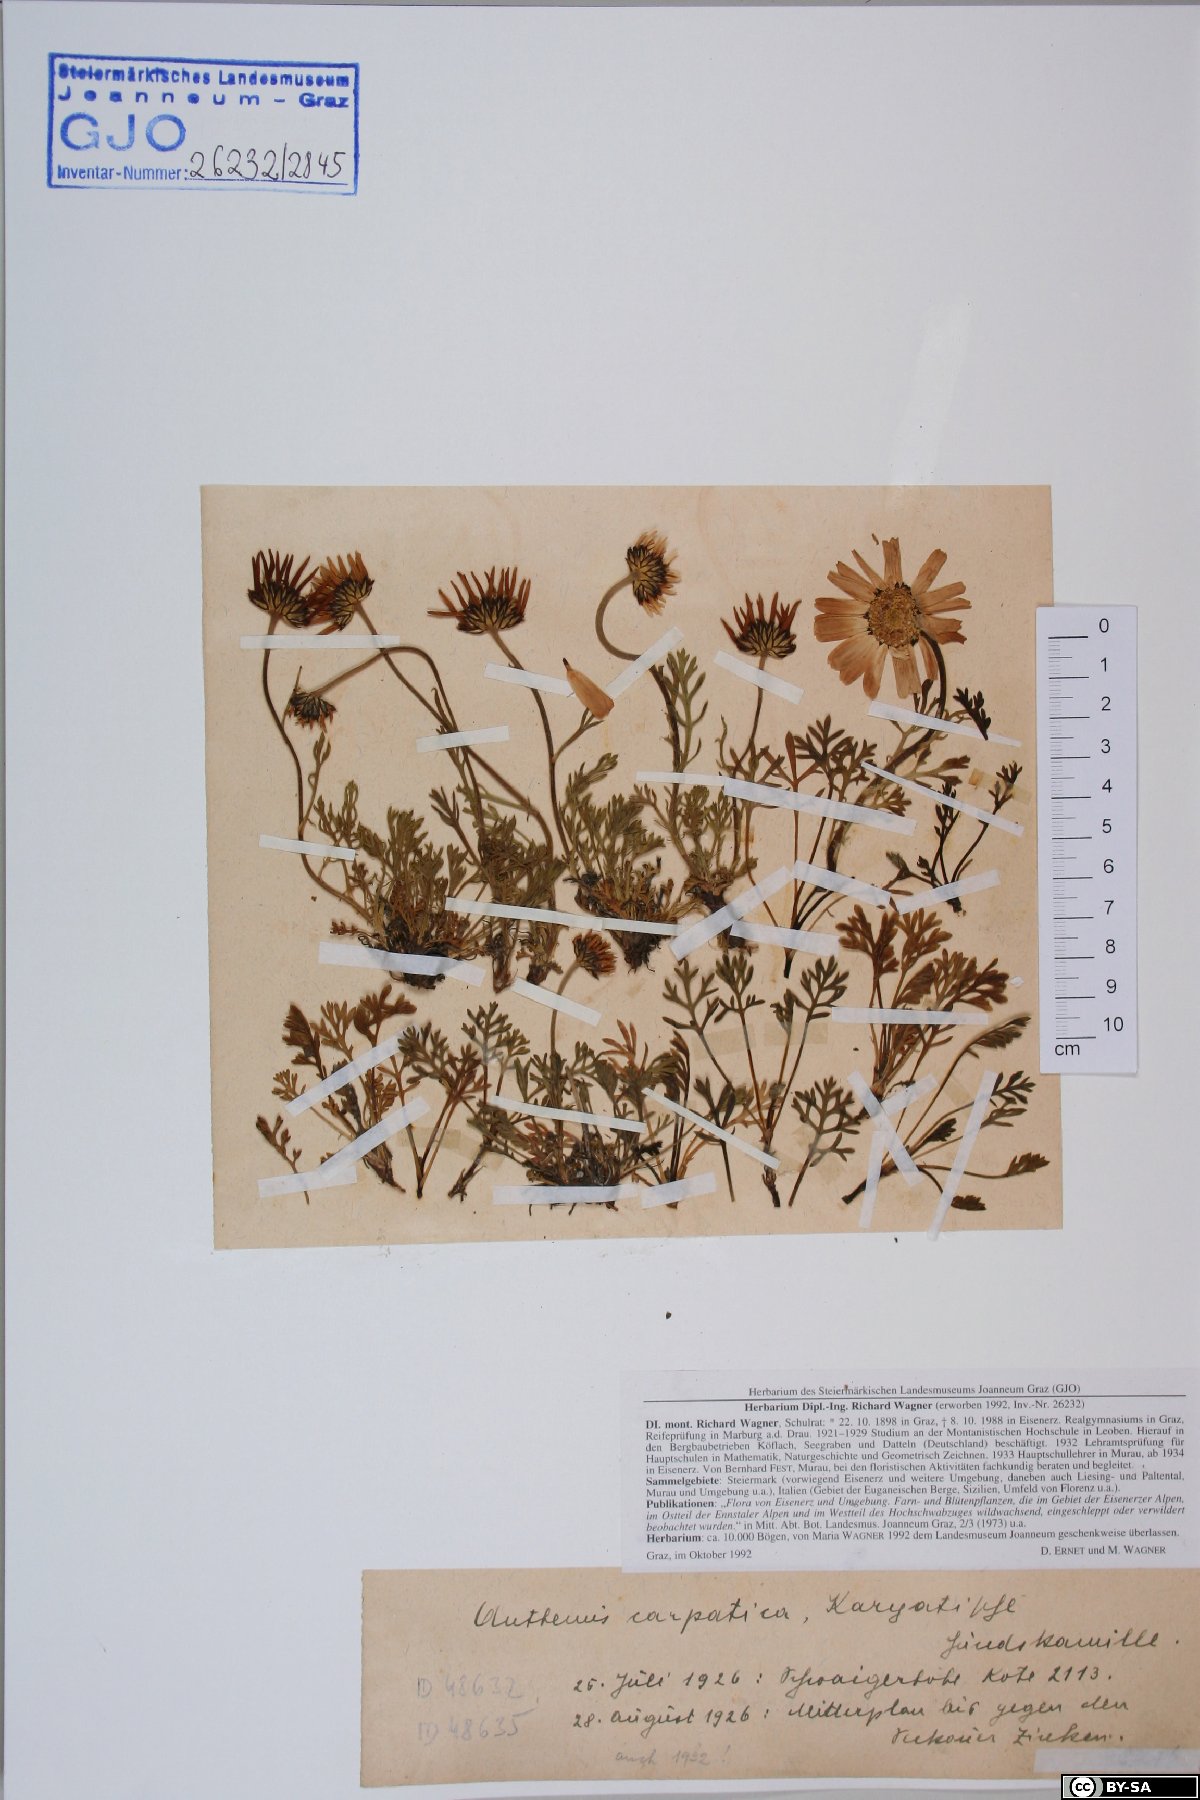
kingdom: Plantae
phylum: Tracheophyta
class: Magnoliopsida
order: Asterales
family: Asteraceae
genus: Anthemis
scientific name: Anthemis cretica
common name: Mountain dog-daisy
